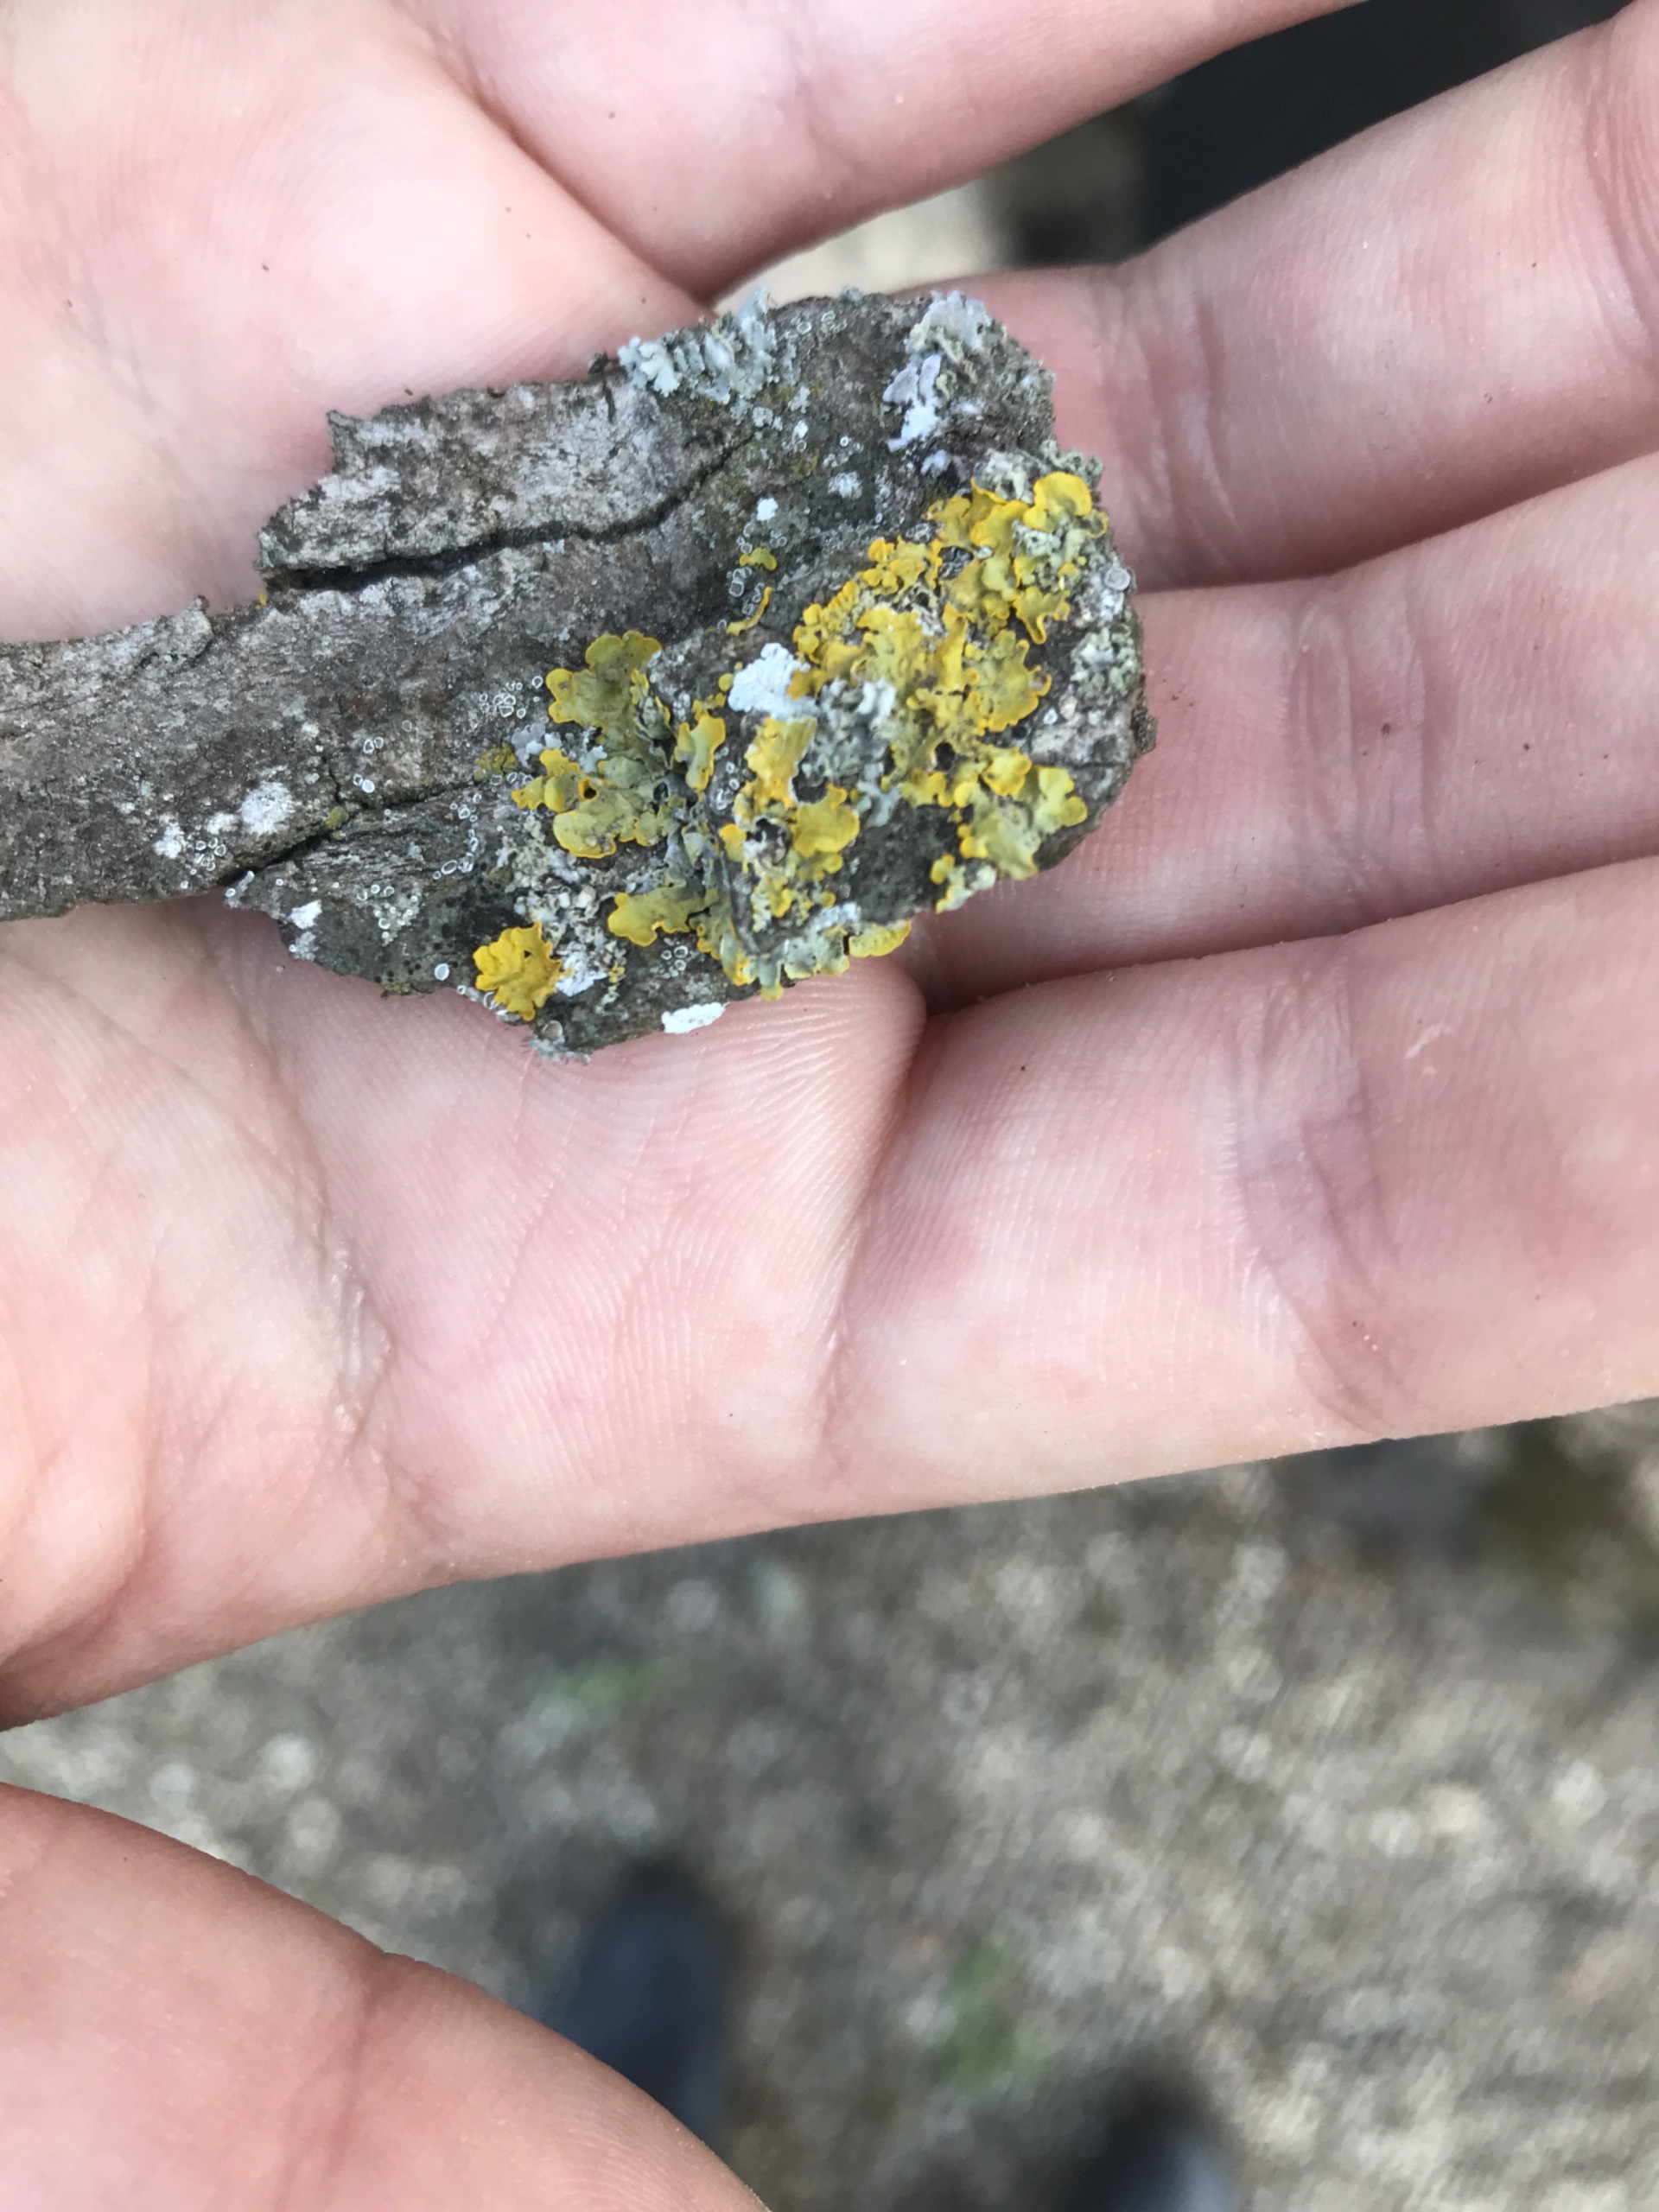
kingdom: Fungi
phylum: Ascomycota
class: Lecanoromycetes
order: Teloschistales
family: Teloschistaceae
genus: Xanthoria
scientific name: Xanthoria parietina
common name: Almindelig væggelav
